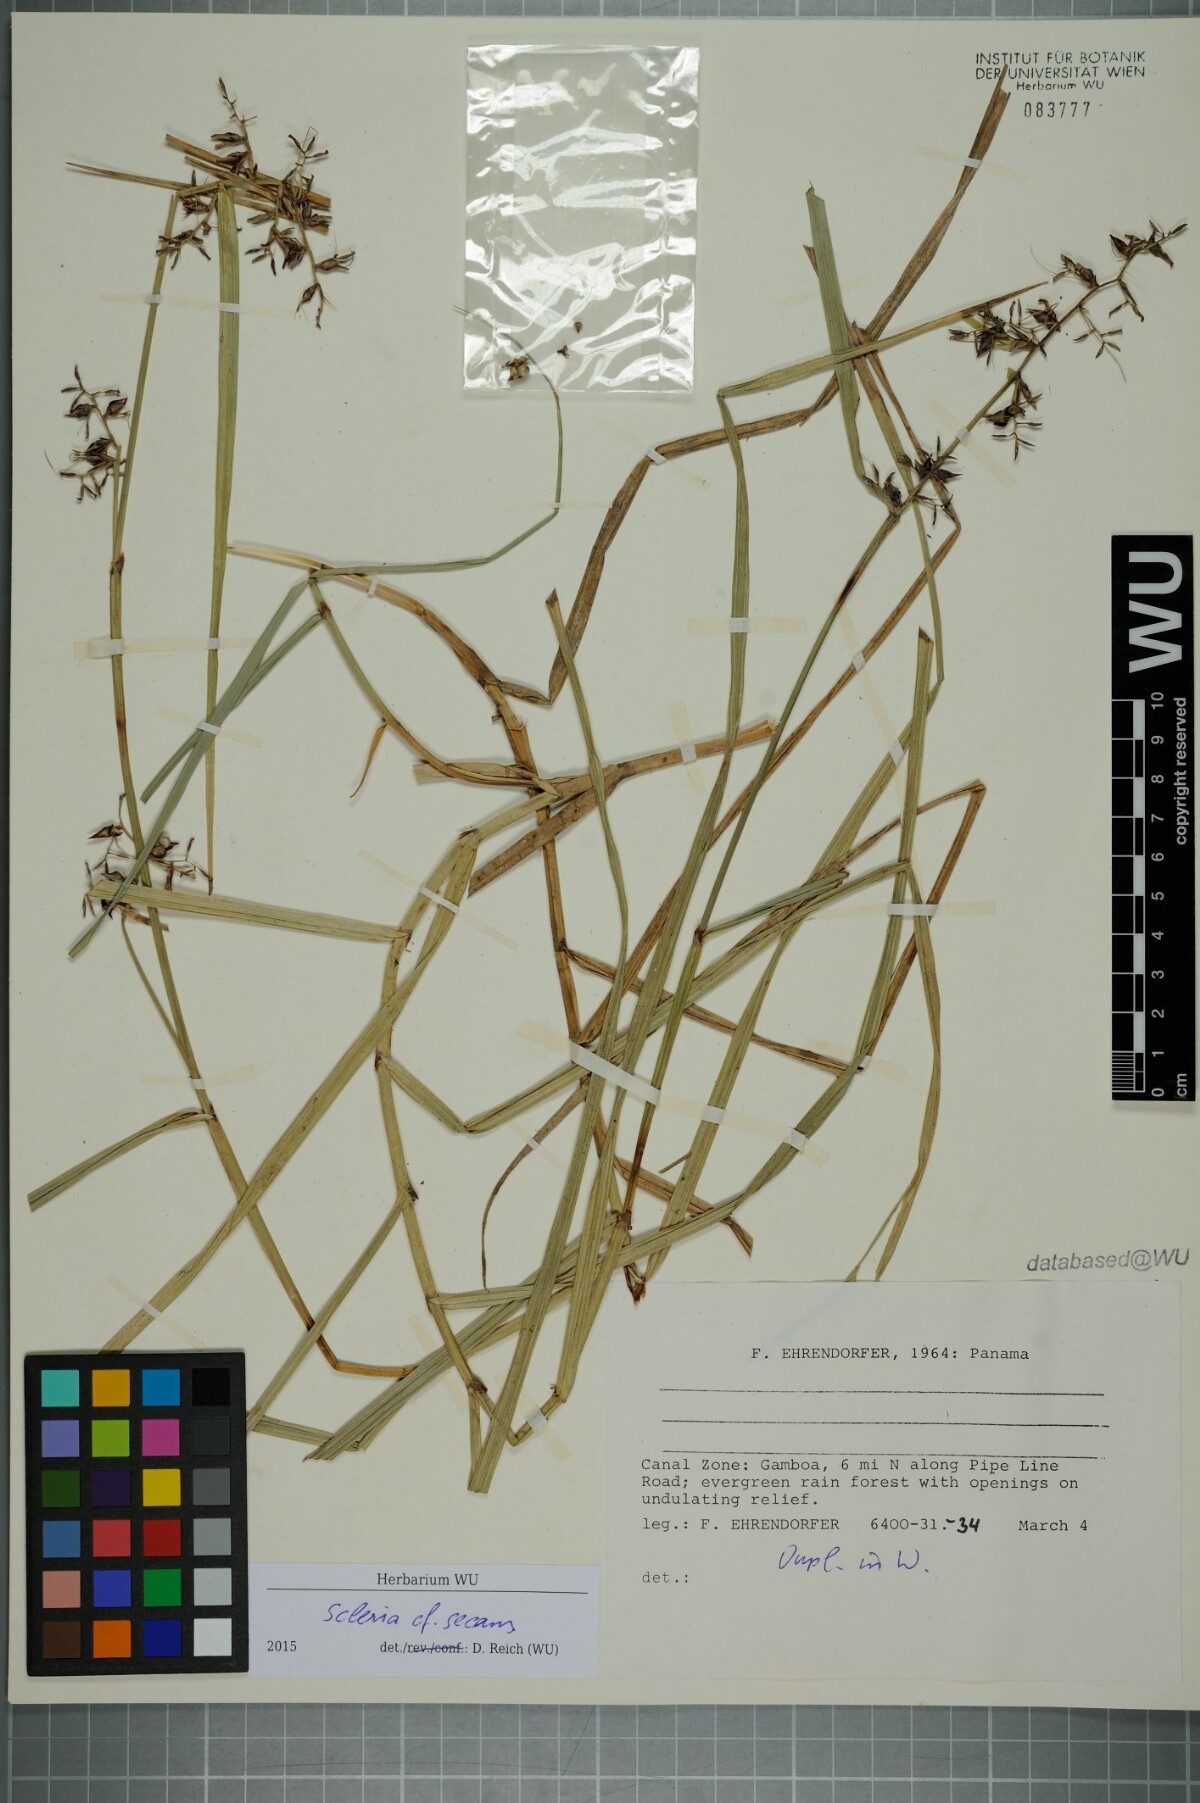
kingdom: Plantae
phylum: Tracheophyta
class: Liliopsida
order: Poales
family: Cyperaceae
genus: Scleria
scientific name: Scleria secans
